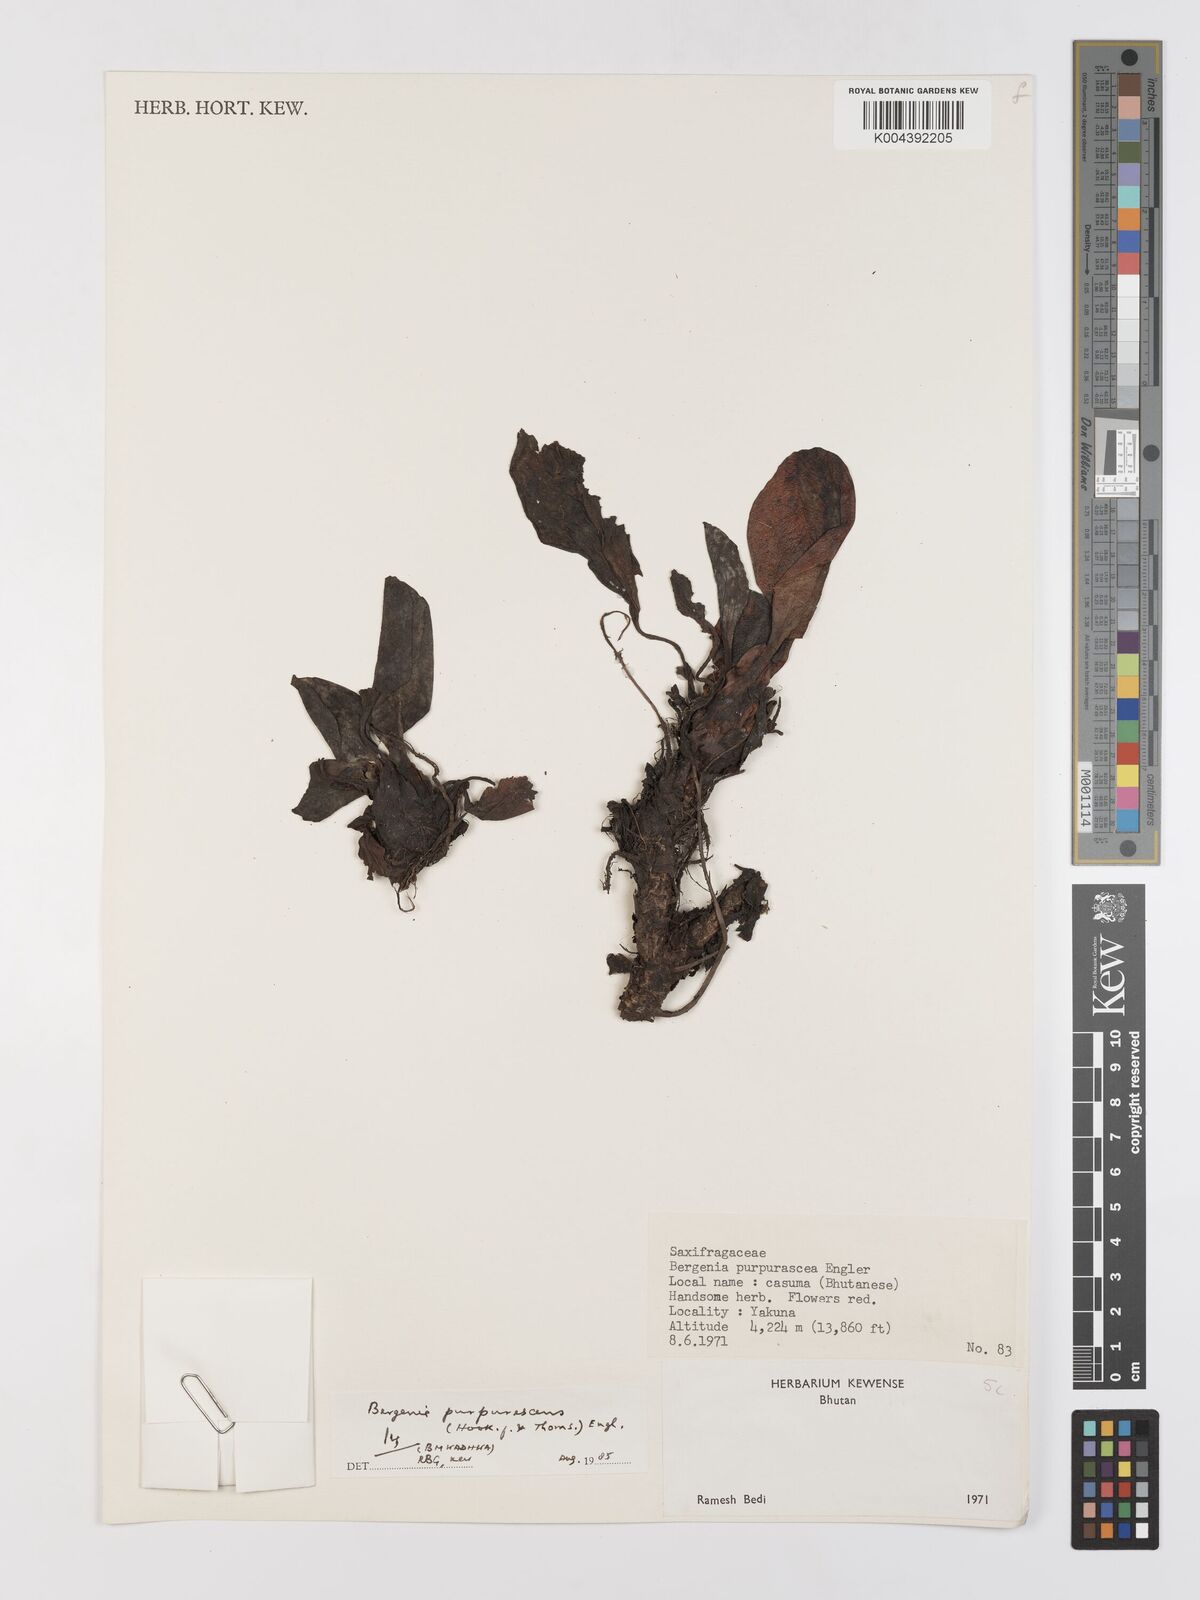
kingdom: Plantae
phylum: Tracheophyta
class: Magnoliopsida
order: Saxifragales
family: Saxifragaceae
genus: Bergenia
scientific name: Bergenia purpurascens
